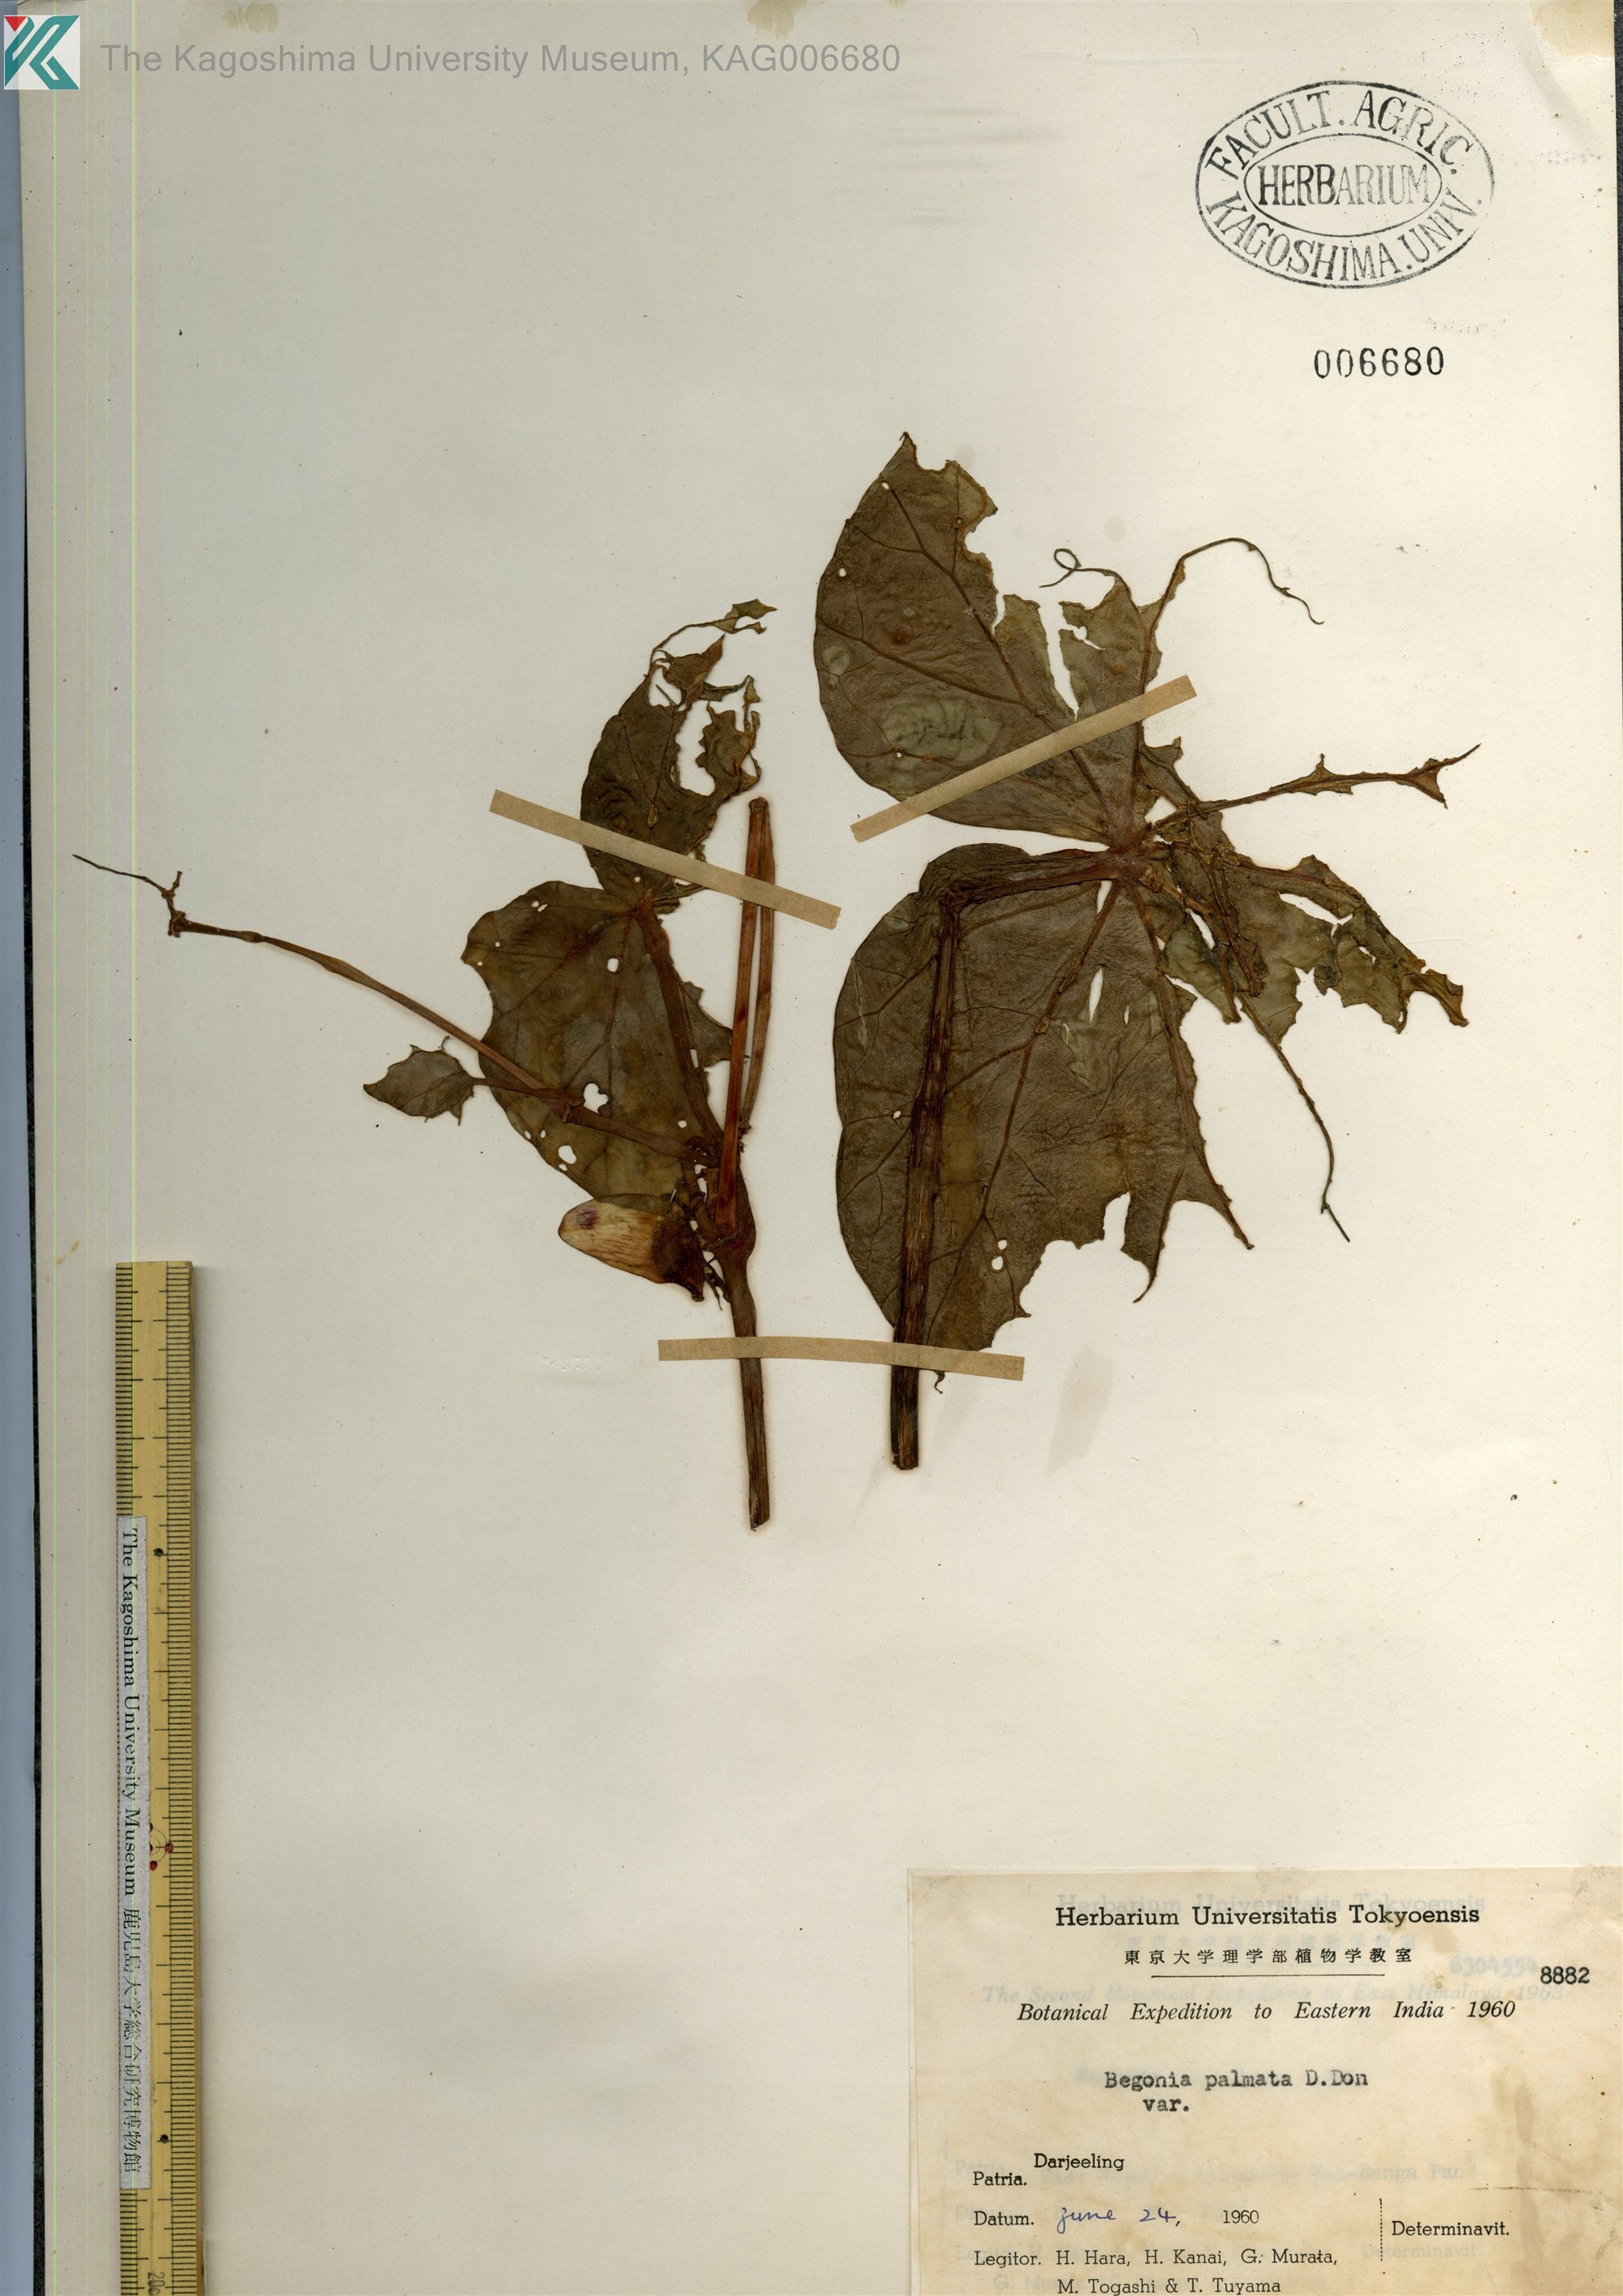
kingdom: Plantae
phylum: Tracheophyta
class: Magnoliopsida
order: Cucurbitales
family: Begoniaceae
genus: Begonia
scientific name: Begonia palmata
